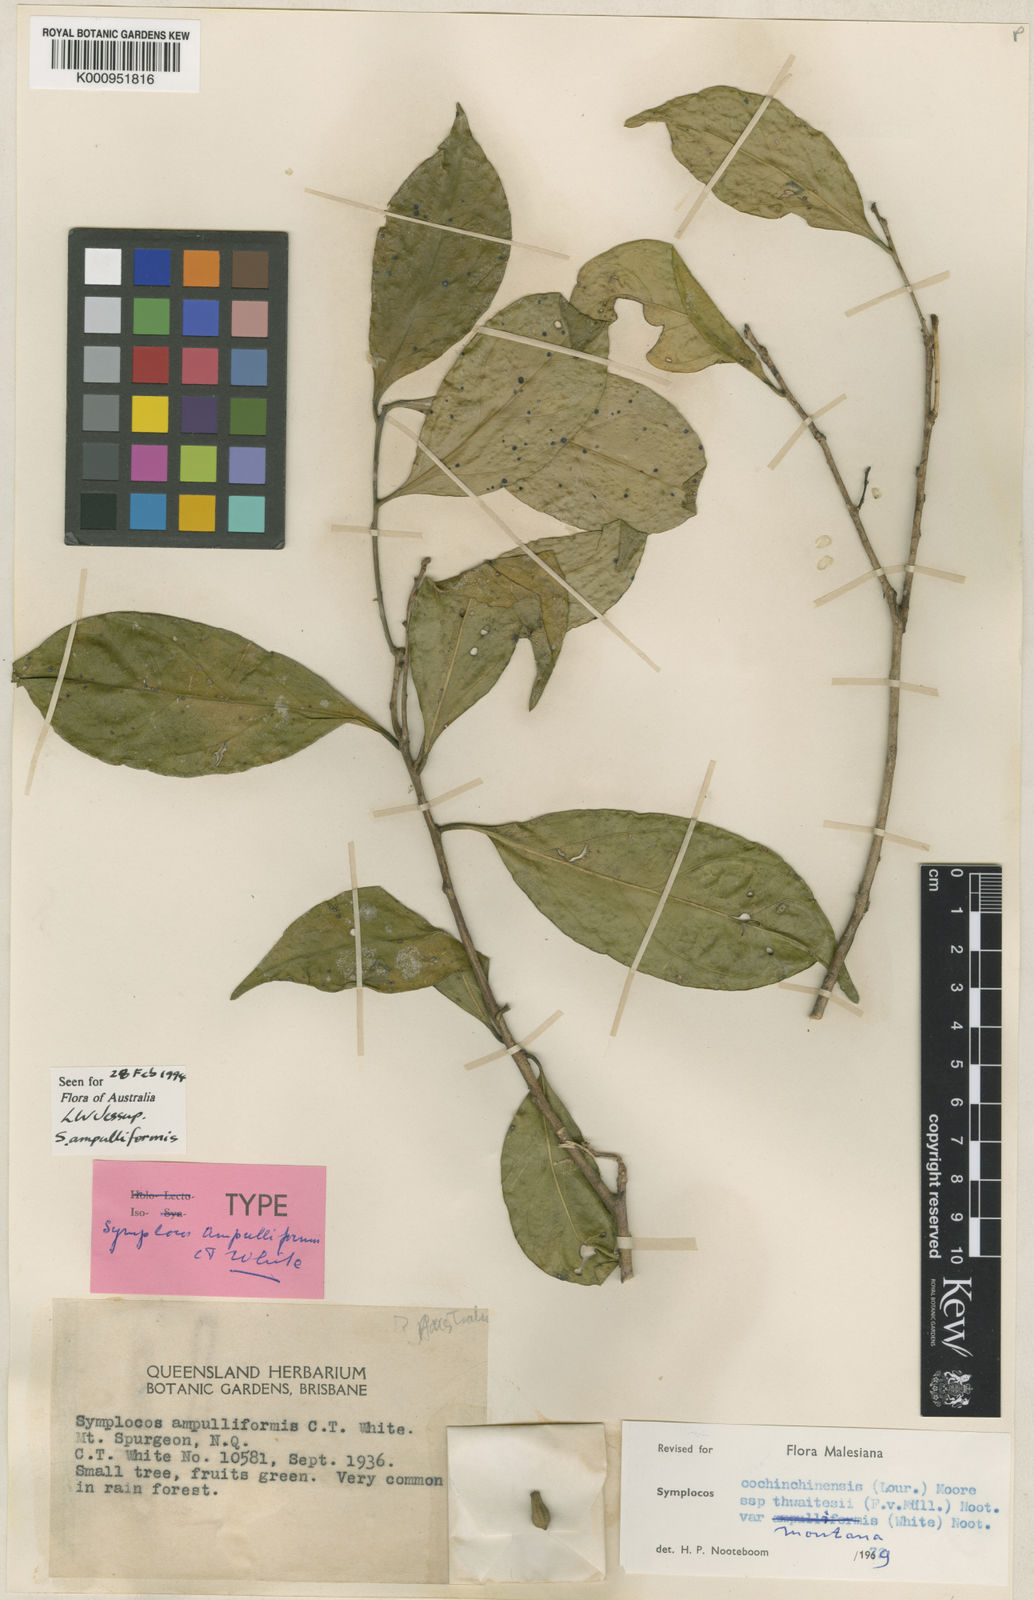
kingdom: Plantae
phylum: Tracheophyta
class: Magnoliopsida
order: Ericales
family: Symplocaceae
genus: Symplocos
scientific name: Symplocos cochinchinensis
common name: Buff hazelwood
